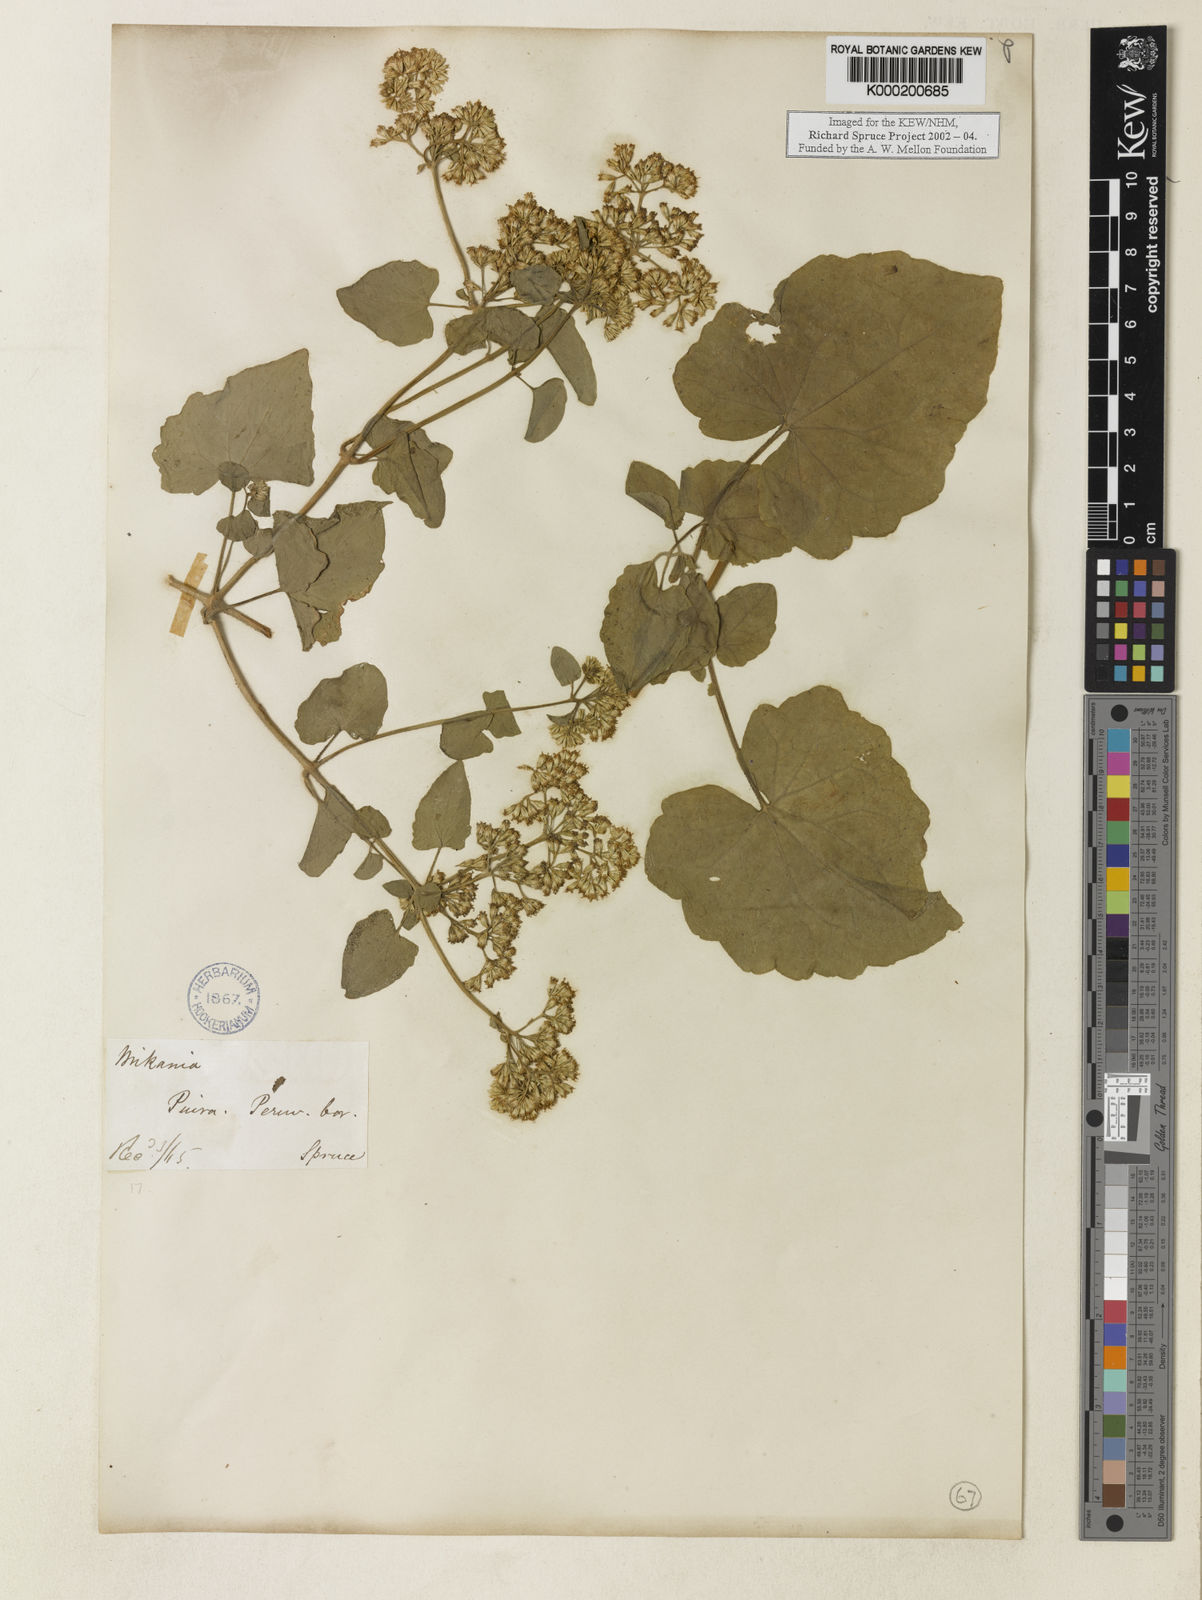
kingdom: Plantae
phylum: Tracheophyta
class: Magnoliopsida
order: Asterales
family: Asteraceae
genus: Mikania
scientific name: Mikania
